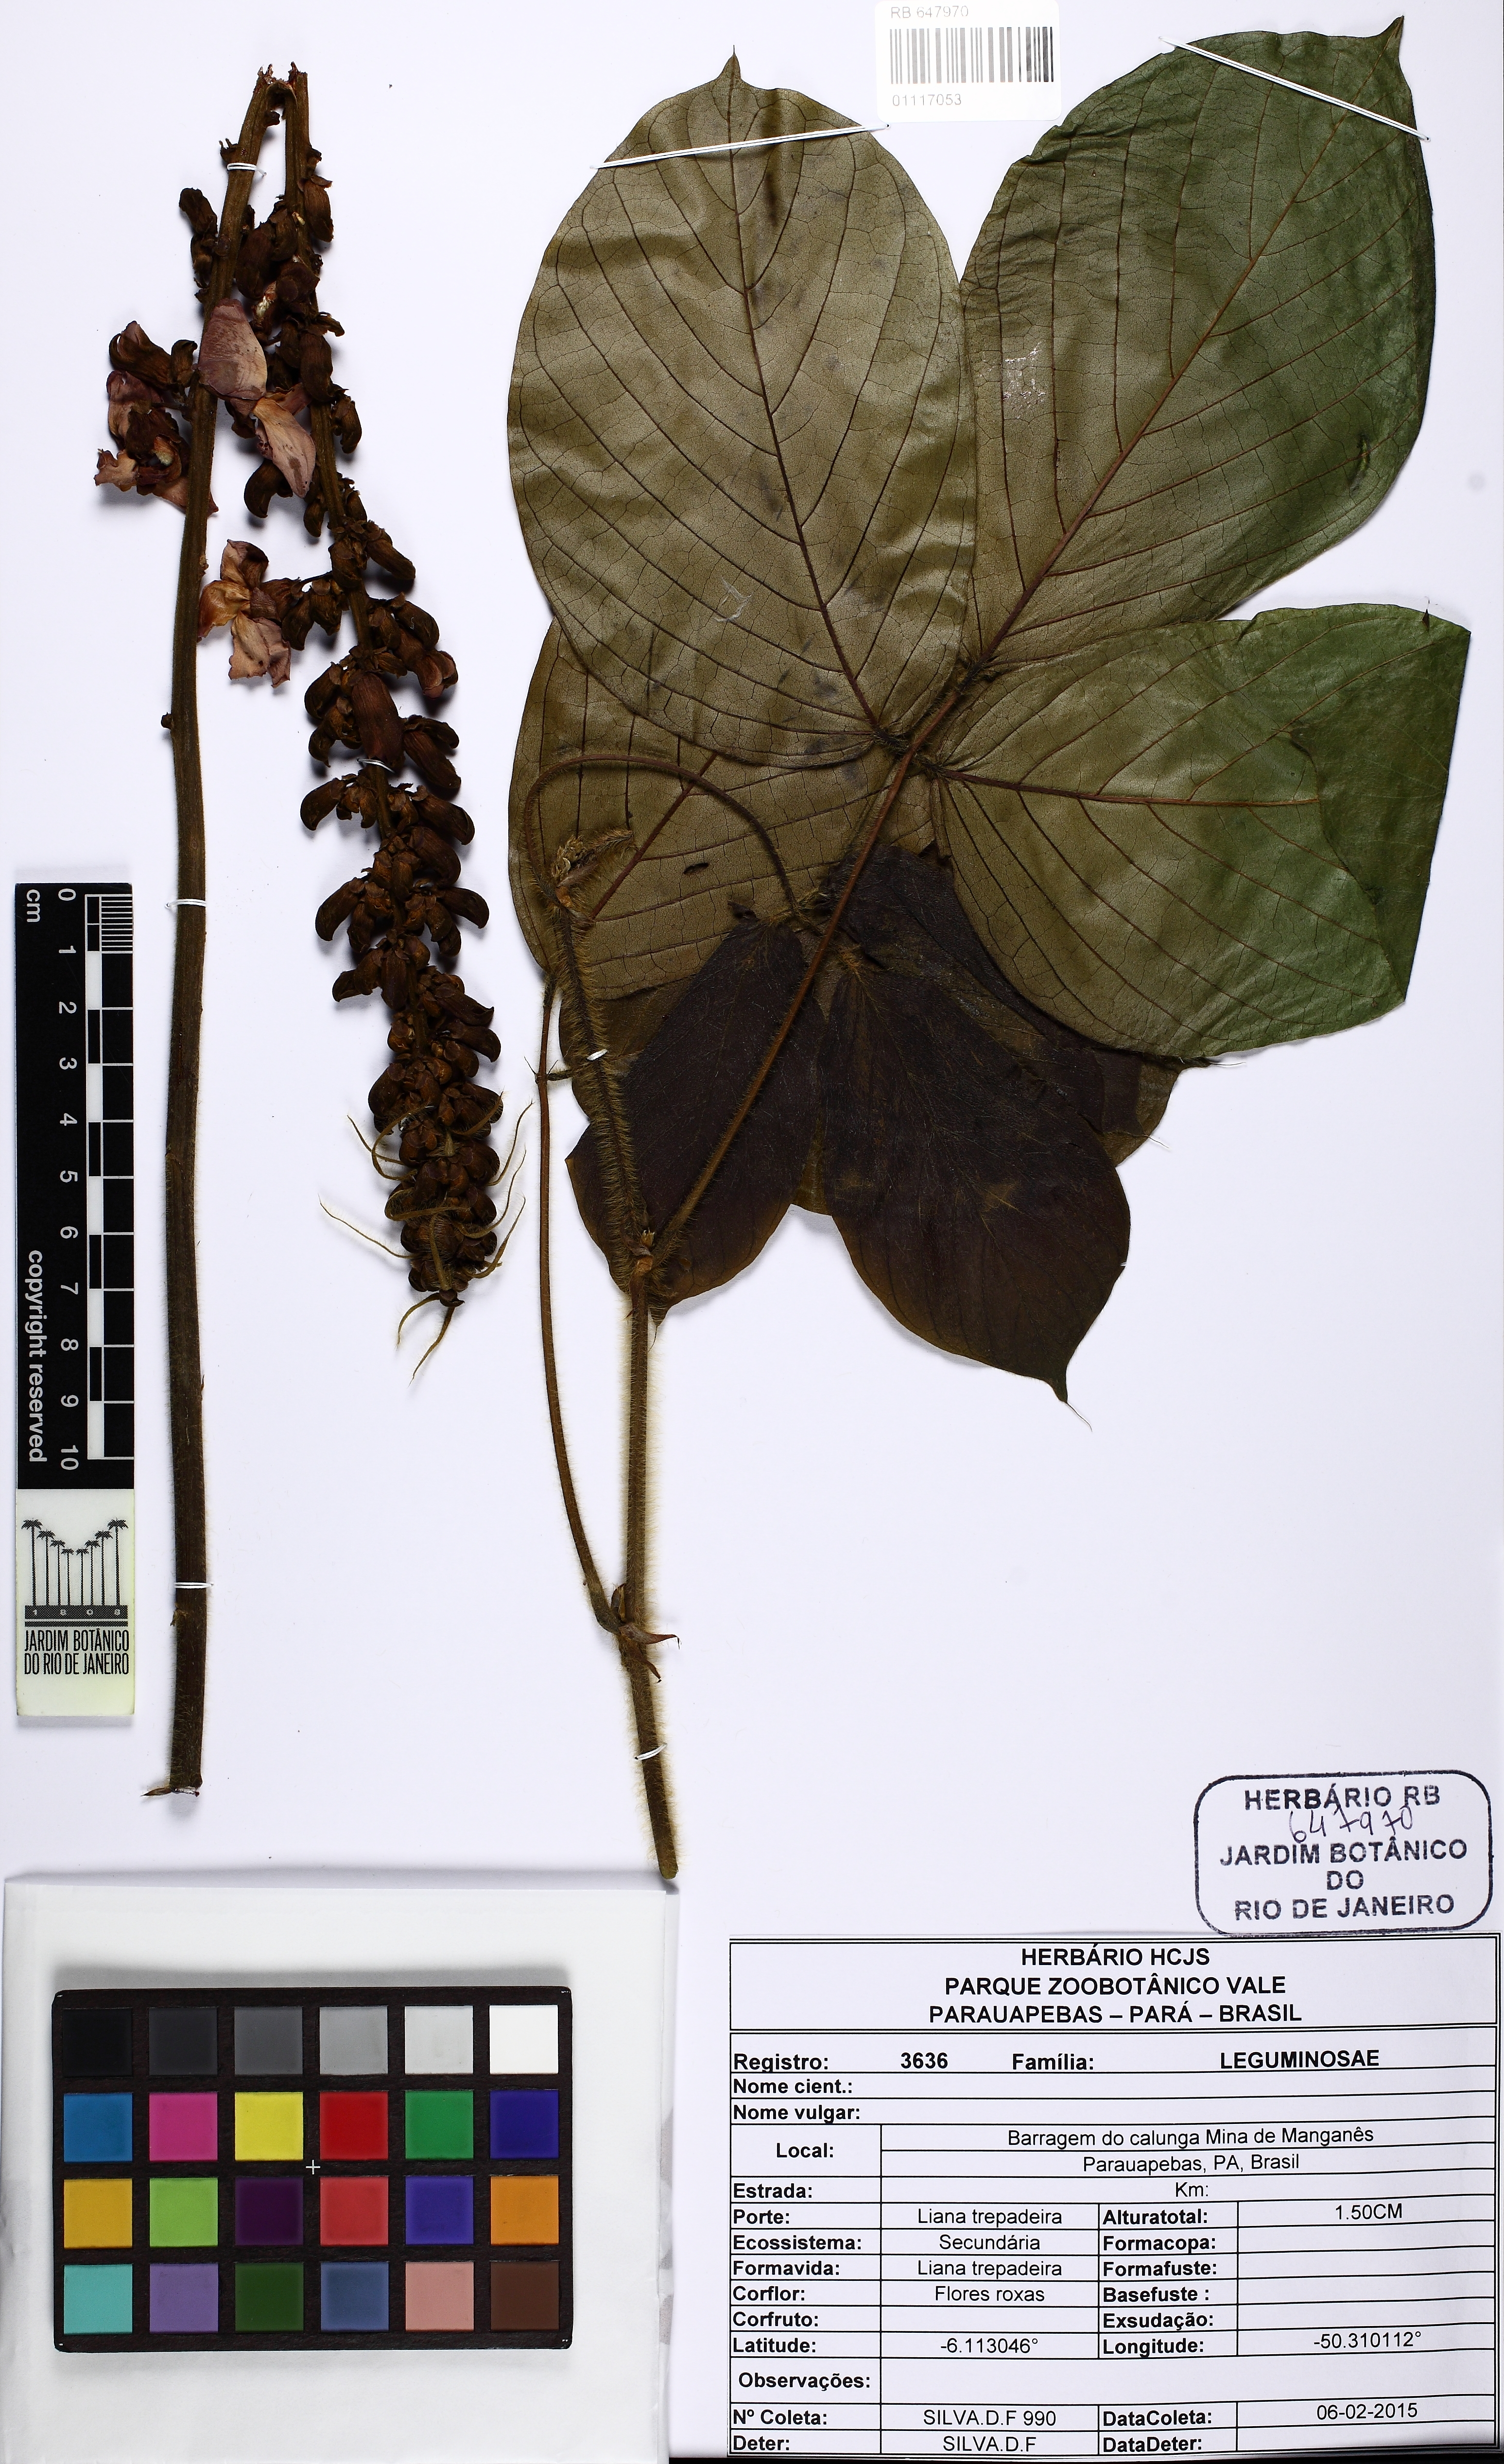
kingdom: Plantae
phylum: Tracheophyta
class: Magnoliopsida
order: Fabales
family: Fabaceae
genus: Dioclea
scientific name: Dioclea
